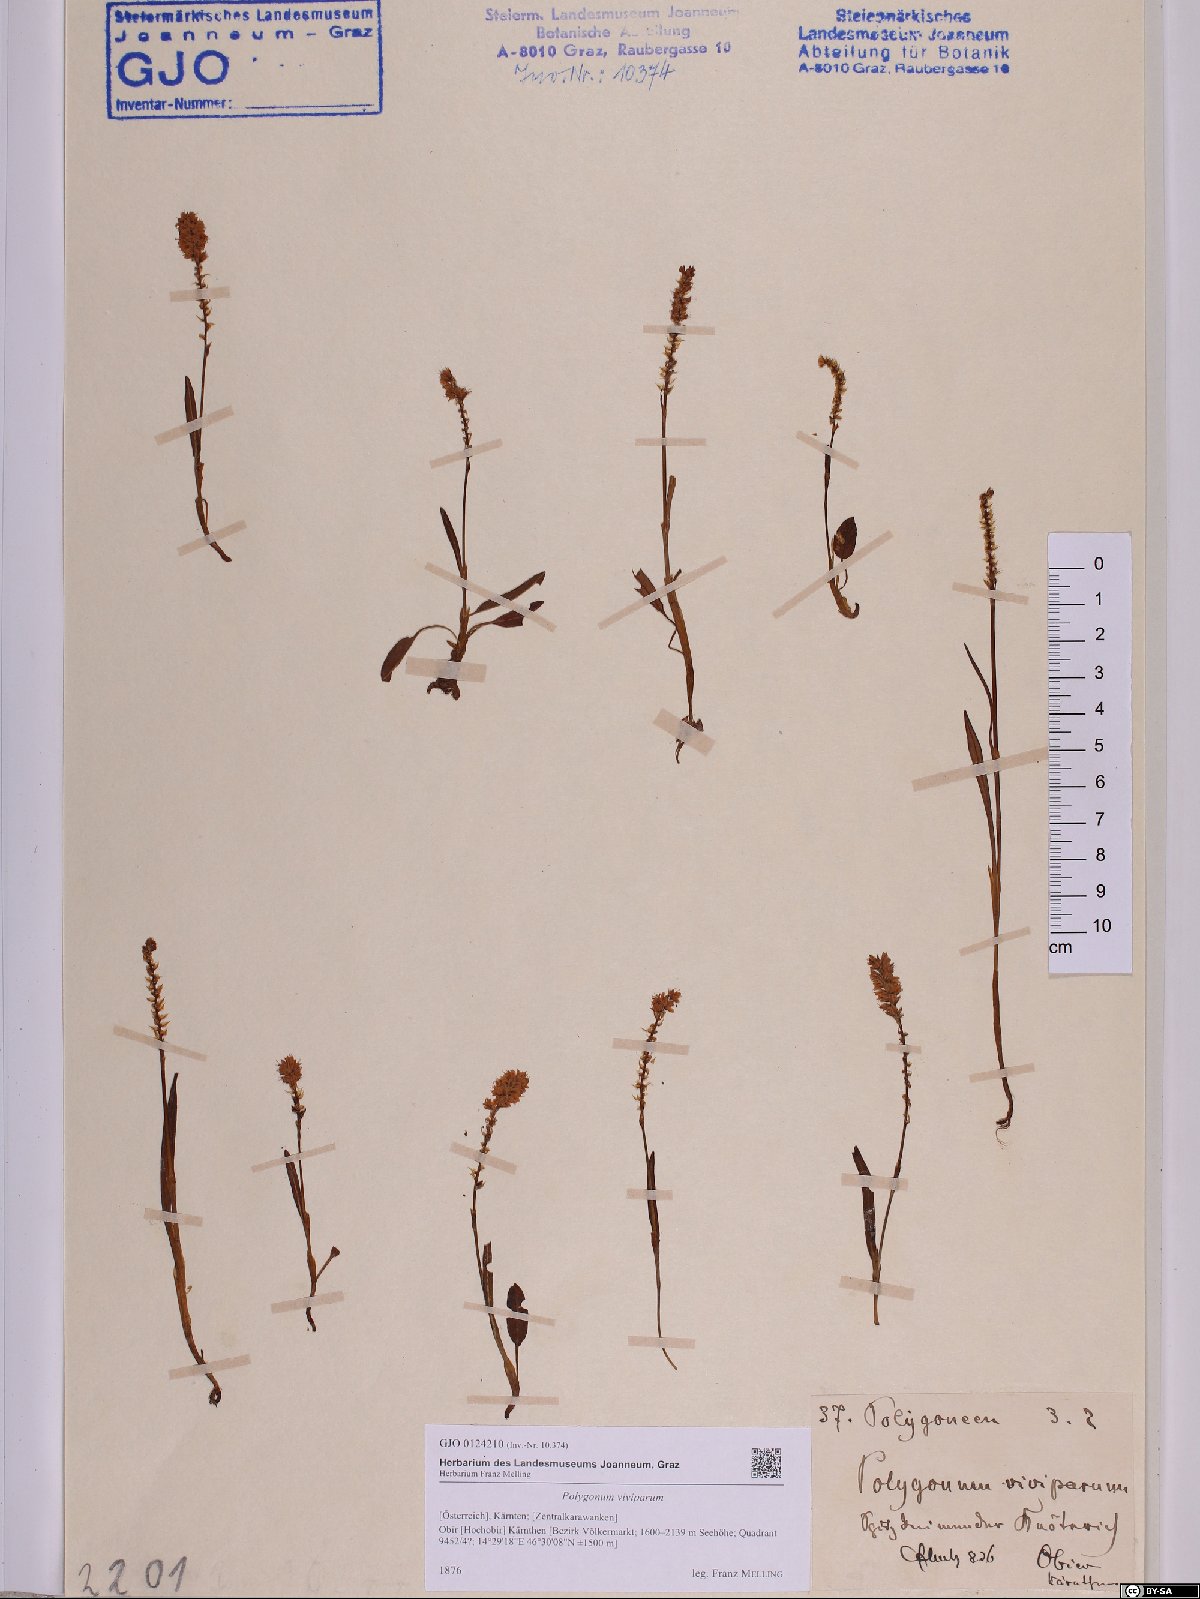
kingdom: Plantae
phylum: Tracheophyta
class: Magnoliopsida
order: Caryophyllales
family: Polygonaceae
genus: Bistorta
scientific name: Bistorta vivipara
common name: Alpine bistort
